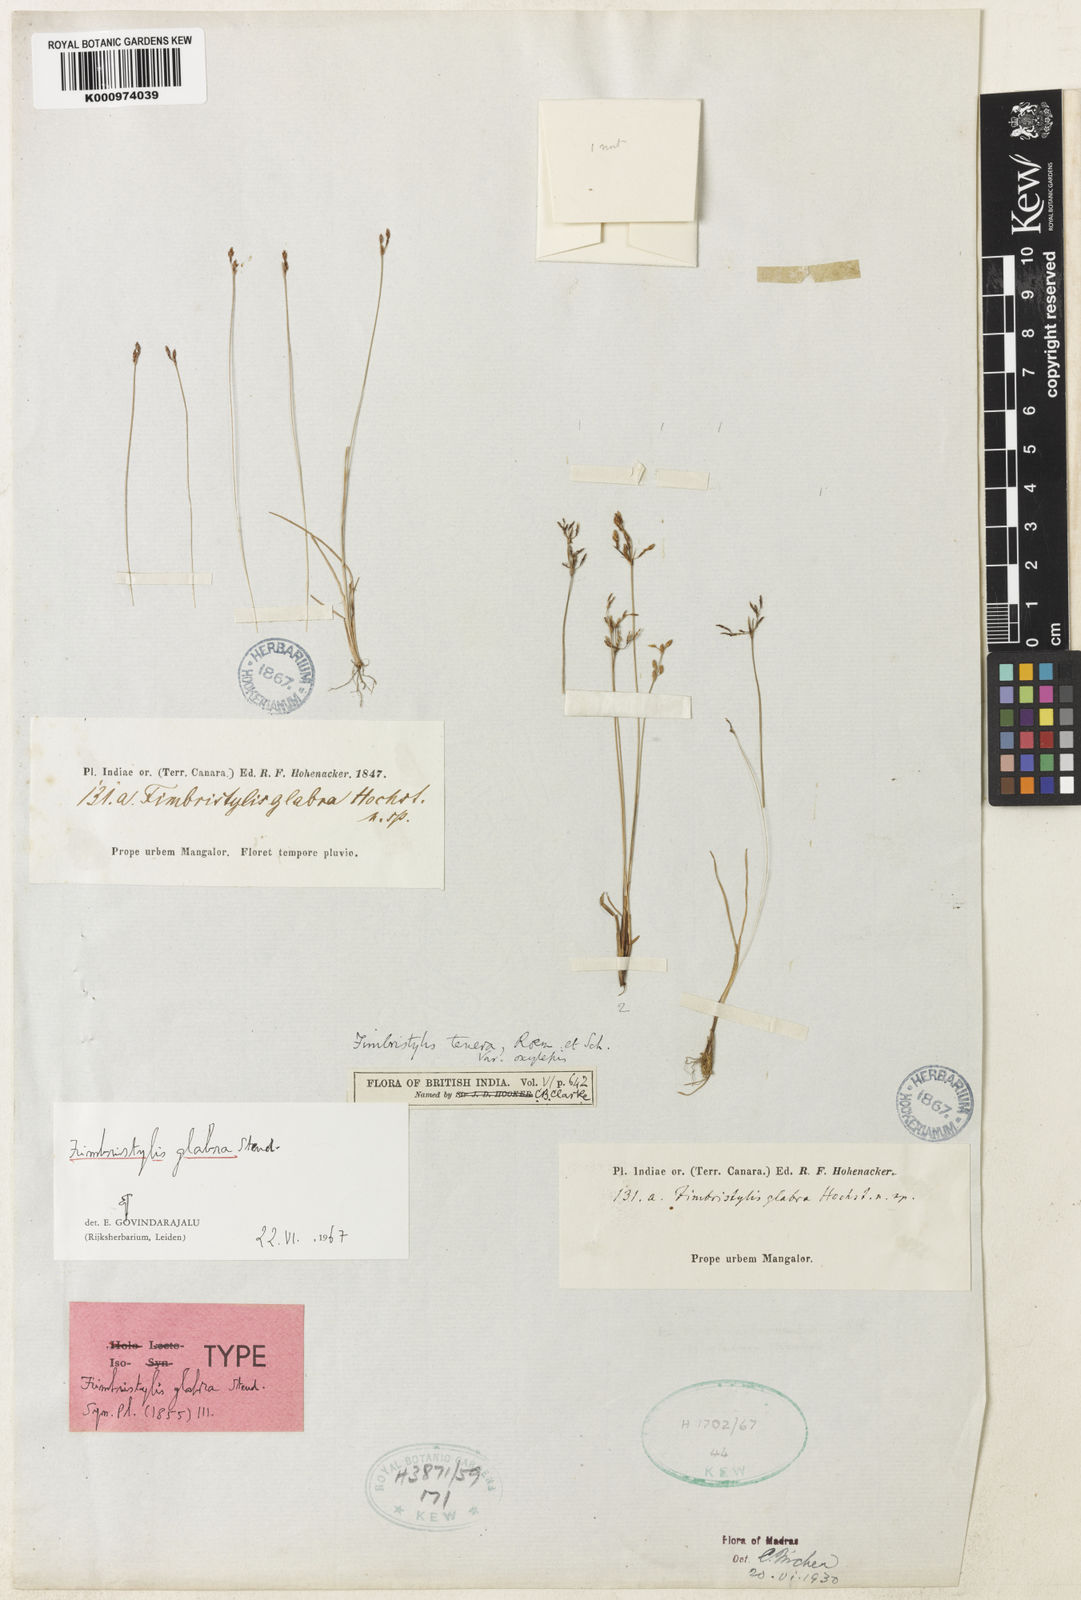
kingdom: Plantae
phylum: Tracheophyta
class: Liliopsida
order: Poales
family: Cyperaceae
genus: Fimbristylis
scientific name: Fimbristylis tenera
